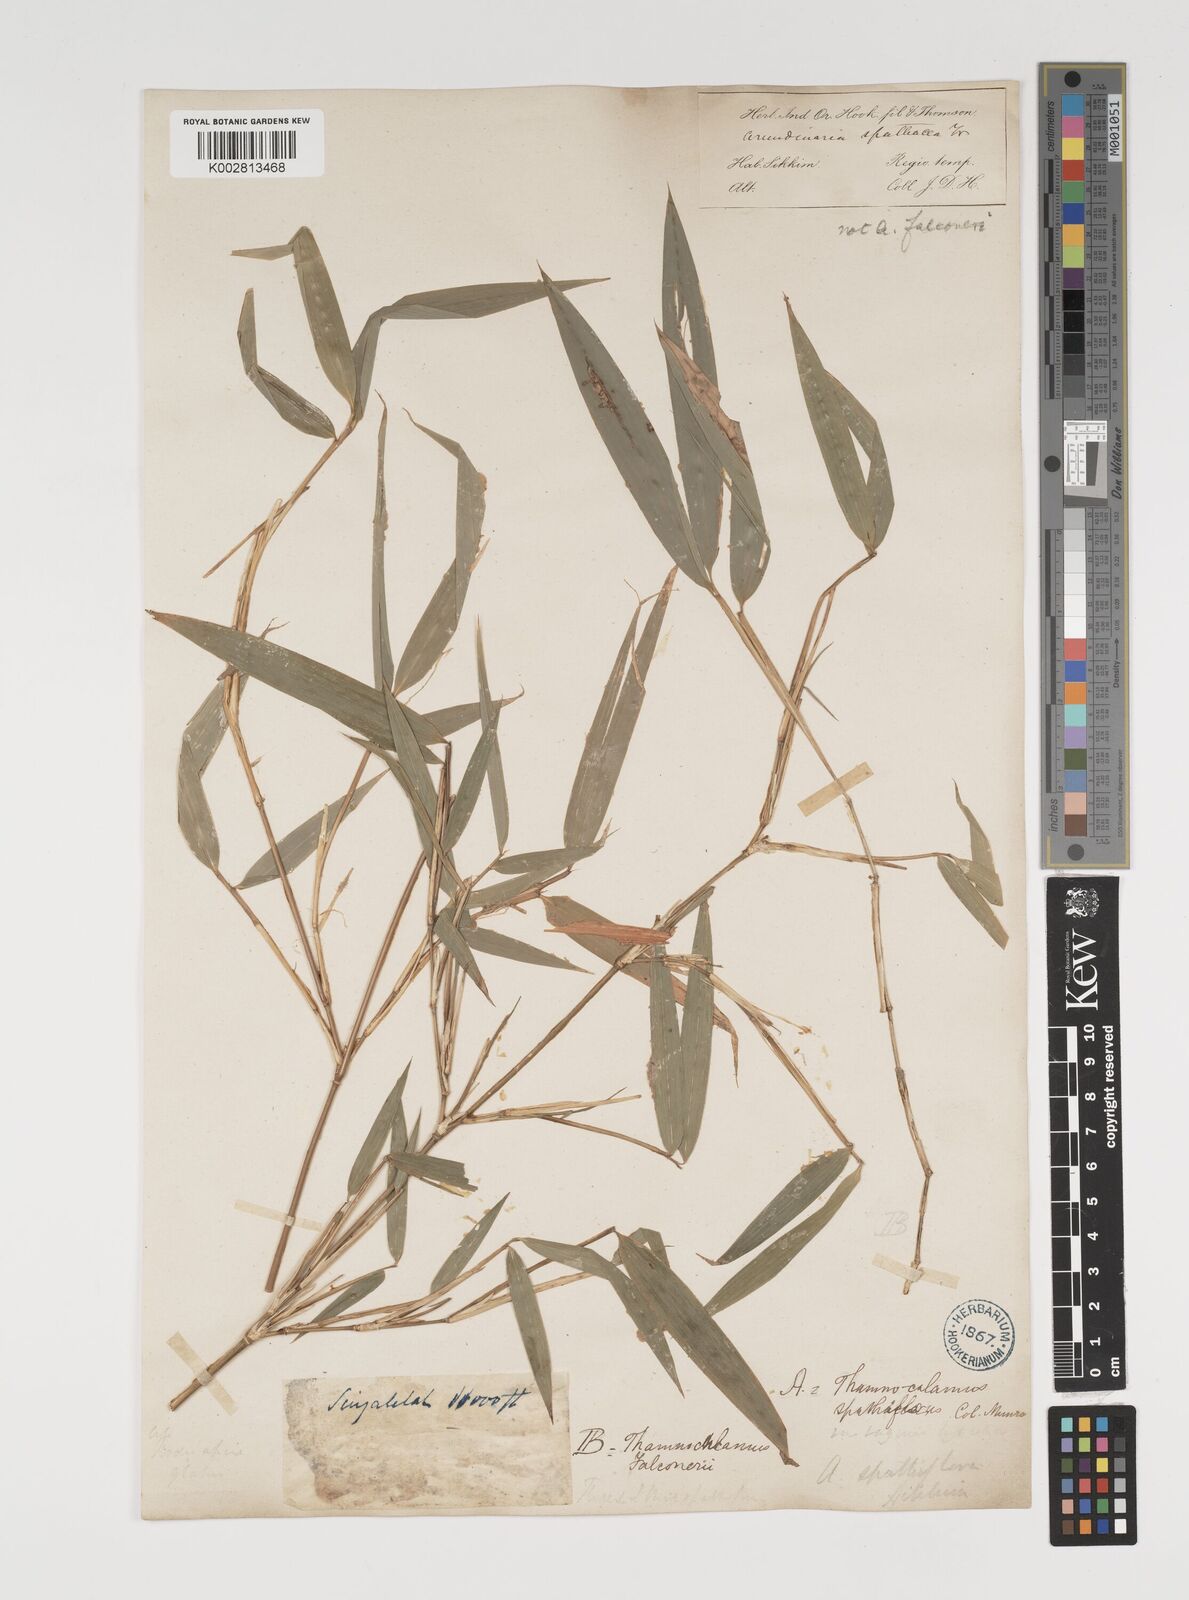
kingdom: Plantae
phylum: Tracheophyta
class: Liliopsida
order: Poales
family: Poaceae
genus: Thamnocalamus
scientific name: Thamnocalamus spathiflorus
